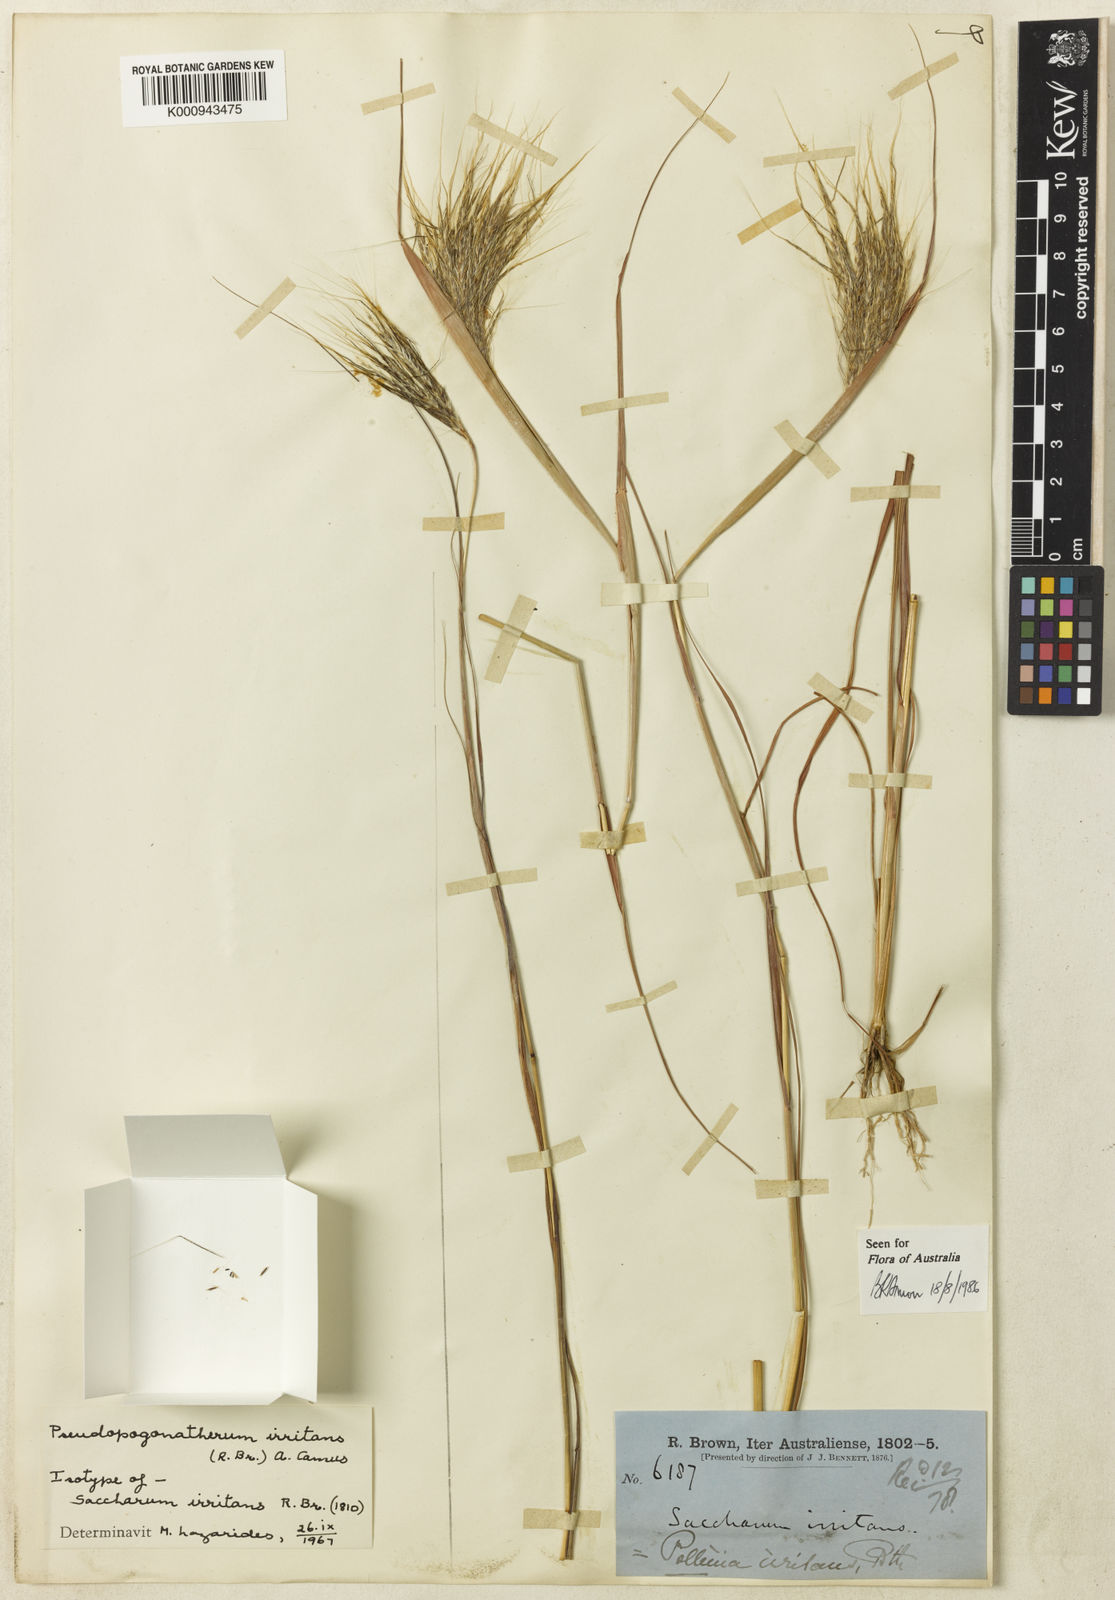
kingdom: Plantae
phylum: Tracheophyta
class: Liliopsida
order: Poales
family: Poaceae
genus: Pseudopogonatherum
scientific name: Pseudopogonatherum irritans
